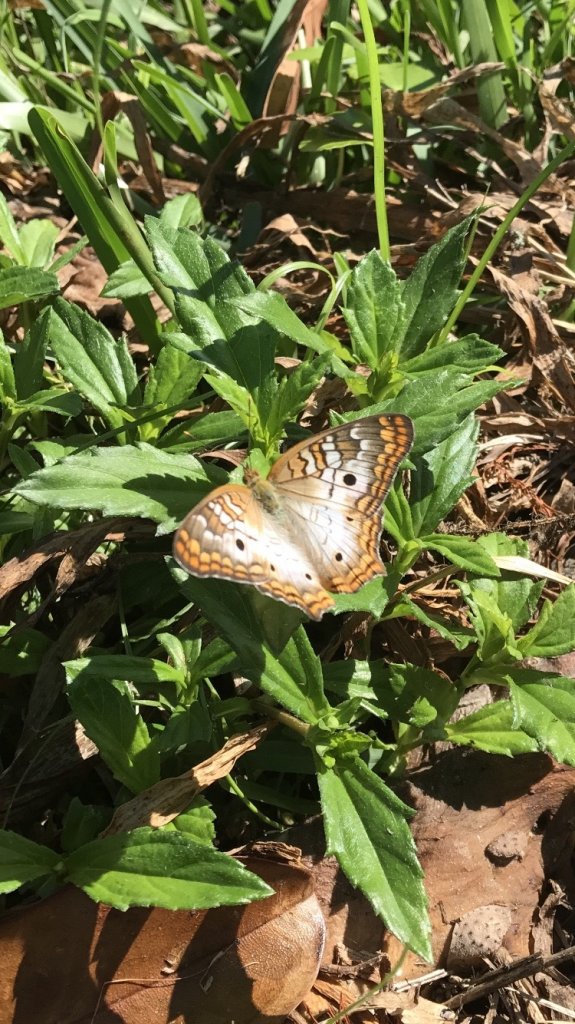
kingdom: Animalia
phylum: Arthropoda
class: Insecta
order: Lepidoptera
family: Nymphalidae
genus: Anartia
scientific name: Anartia jatrophae
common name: White Peacock
